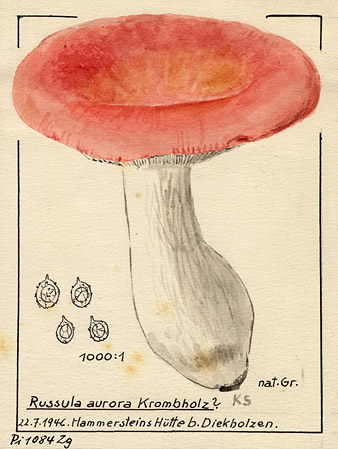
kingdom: Fungi
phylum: Basidiomycota
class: Agaricomycetes
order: Russulales
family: Russulaceae
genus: Russula
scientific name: Russula aurora
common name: Dawn brittlegill
